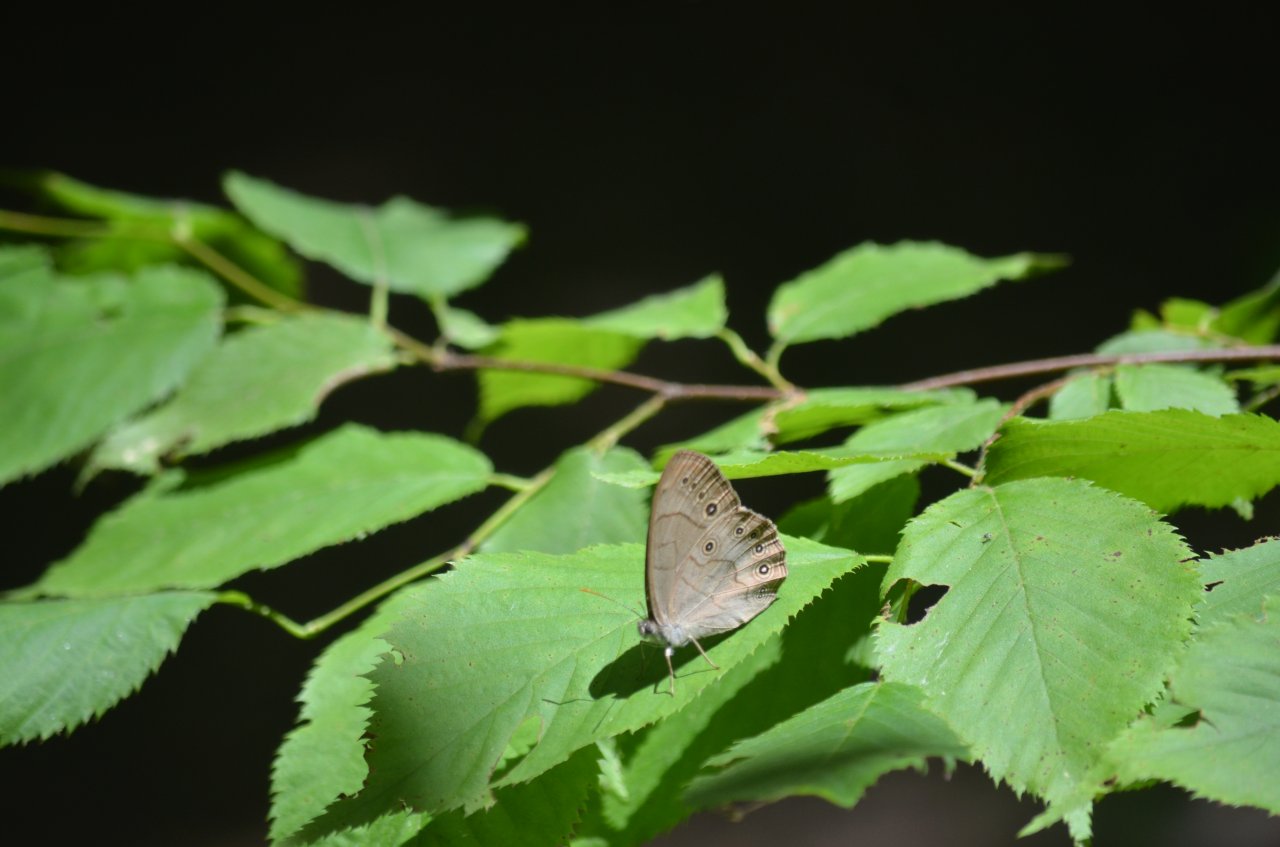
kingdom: Animalia
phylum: Arthropoda
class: Insecta
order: Lepidoptera
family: Nymphalidae
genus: Lethe
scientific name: Lethe
